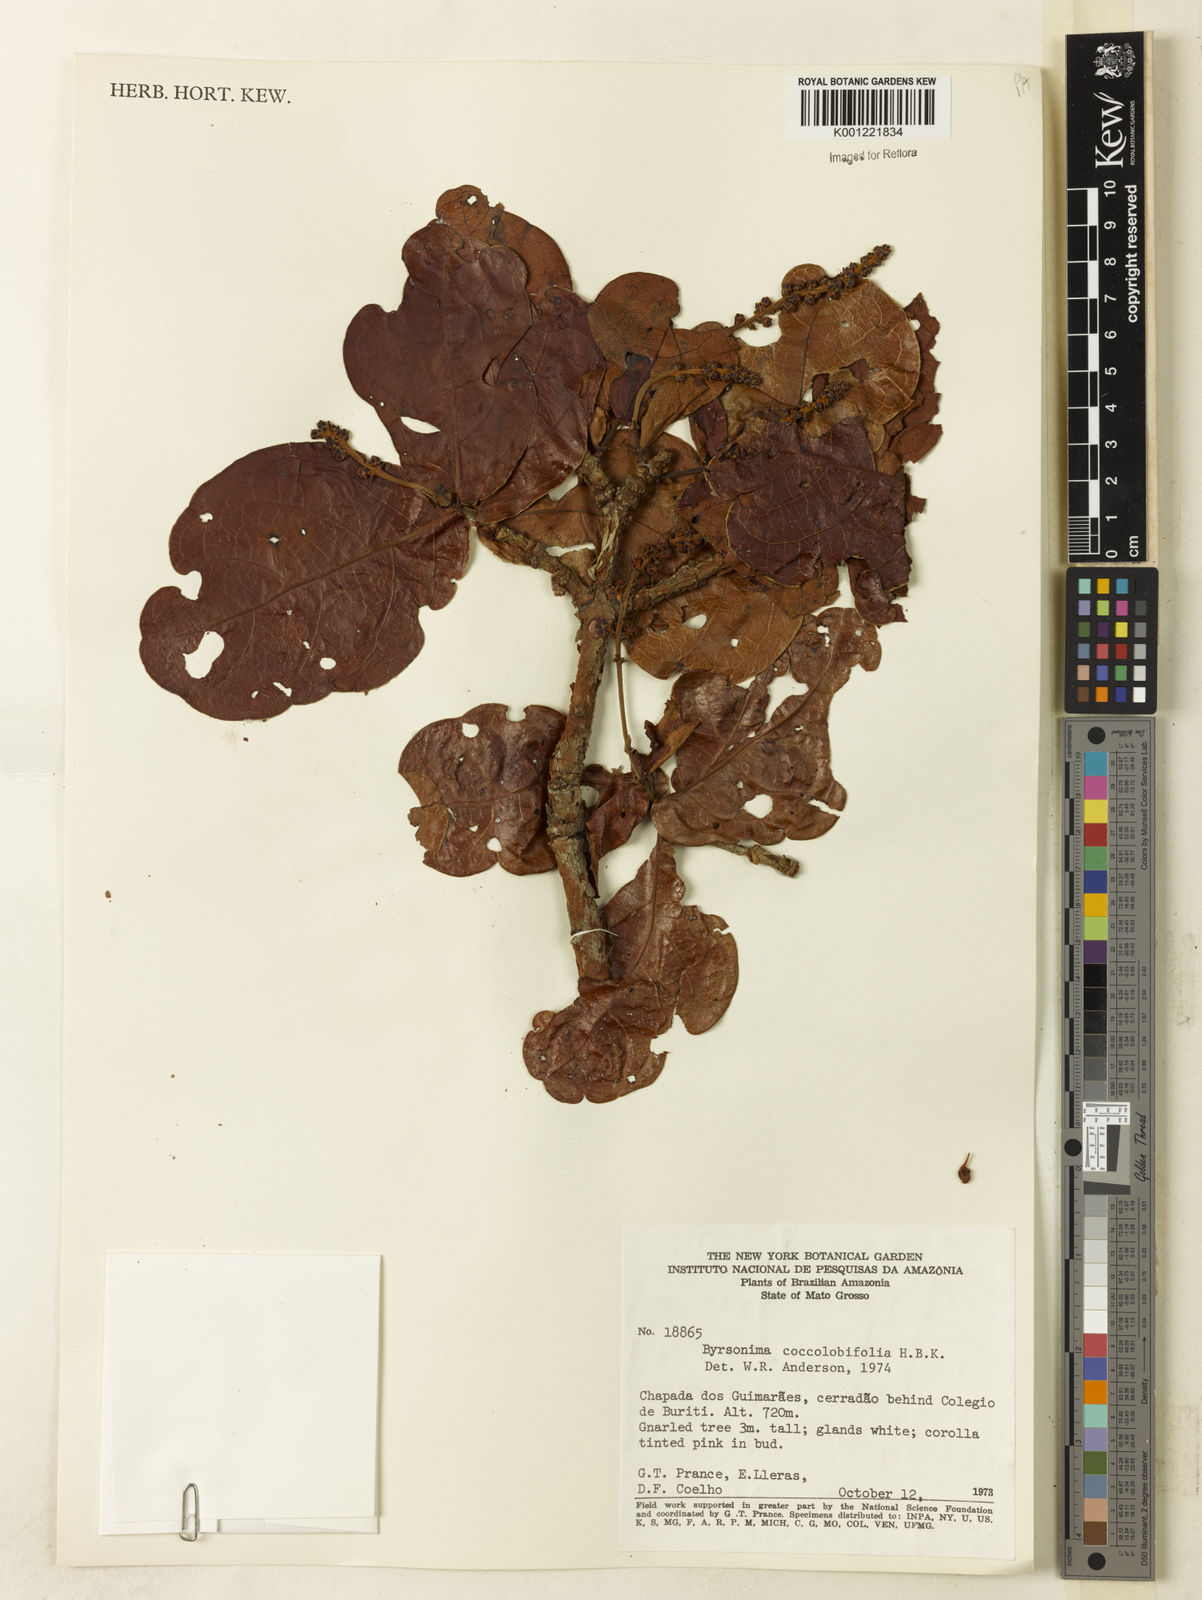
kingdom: Plantae
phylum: Tracheophyta
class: Magnoliopsida
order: Malpighiales
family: Malpighiaceae
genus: Byrsonima
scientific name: Byrsonima coccolobifolia
